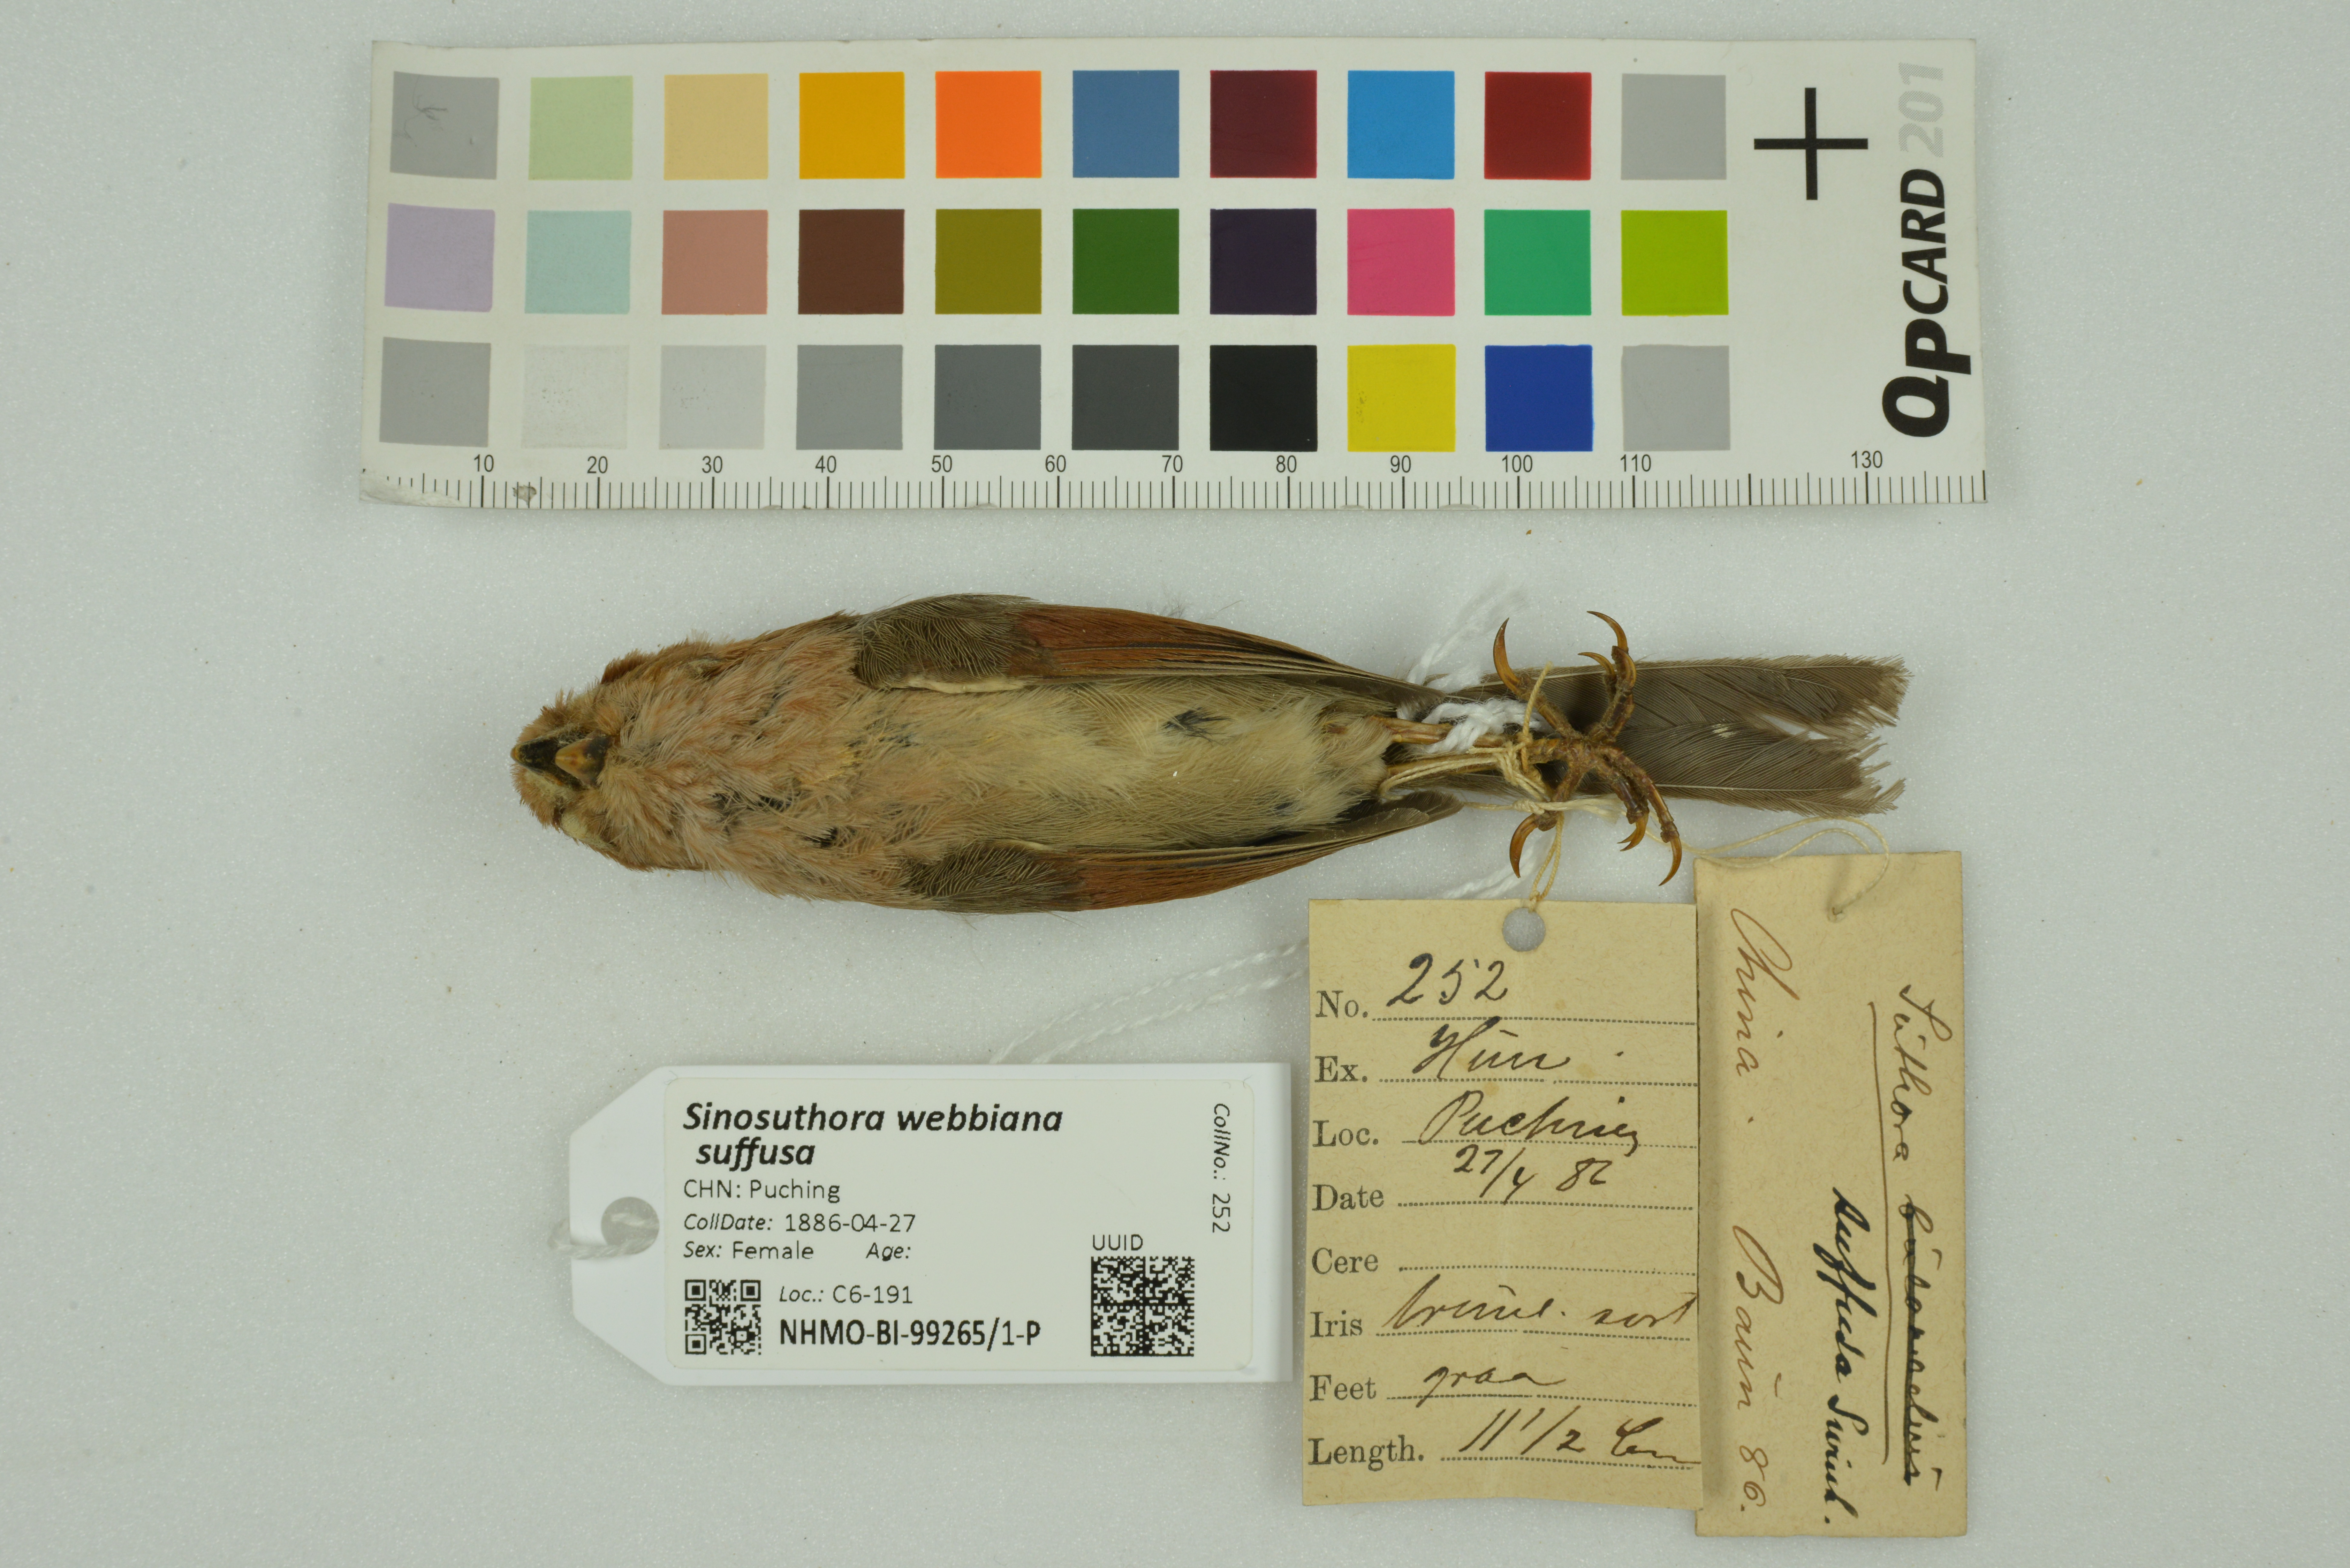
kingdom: Animalia
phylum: Chordata
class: Aves
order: Passeriformes
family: Sylviidae
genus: Sinosuthora
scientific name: Sinosuthora webbiana
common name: Vinous-throated parrotbill
